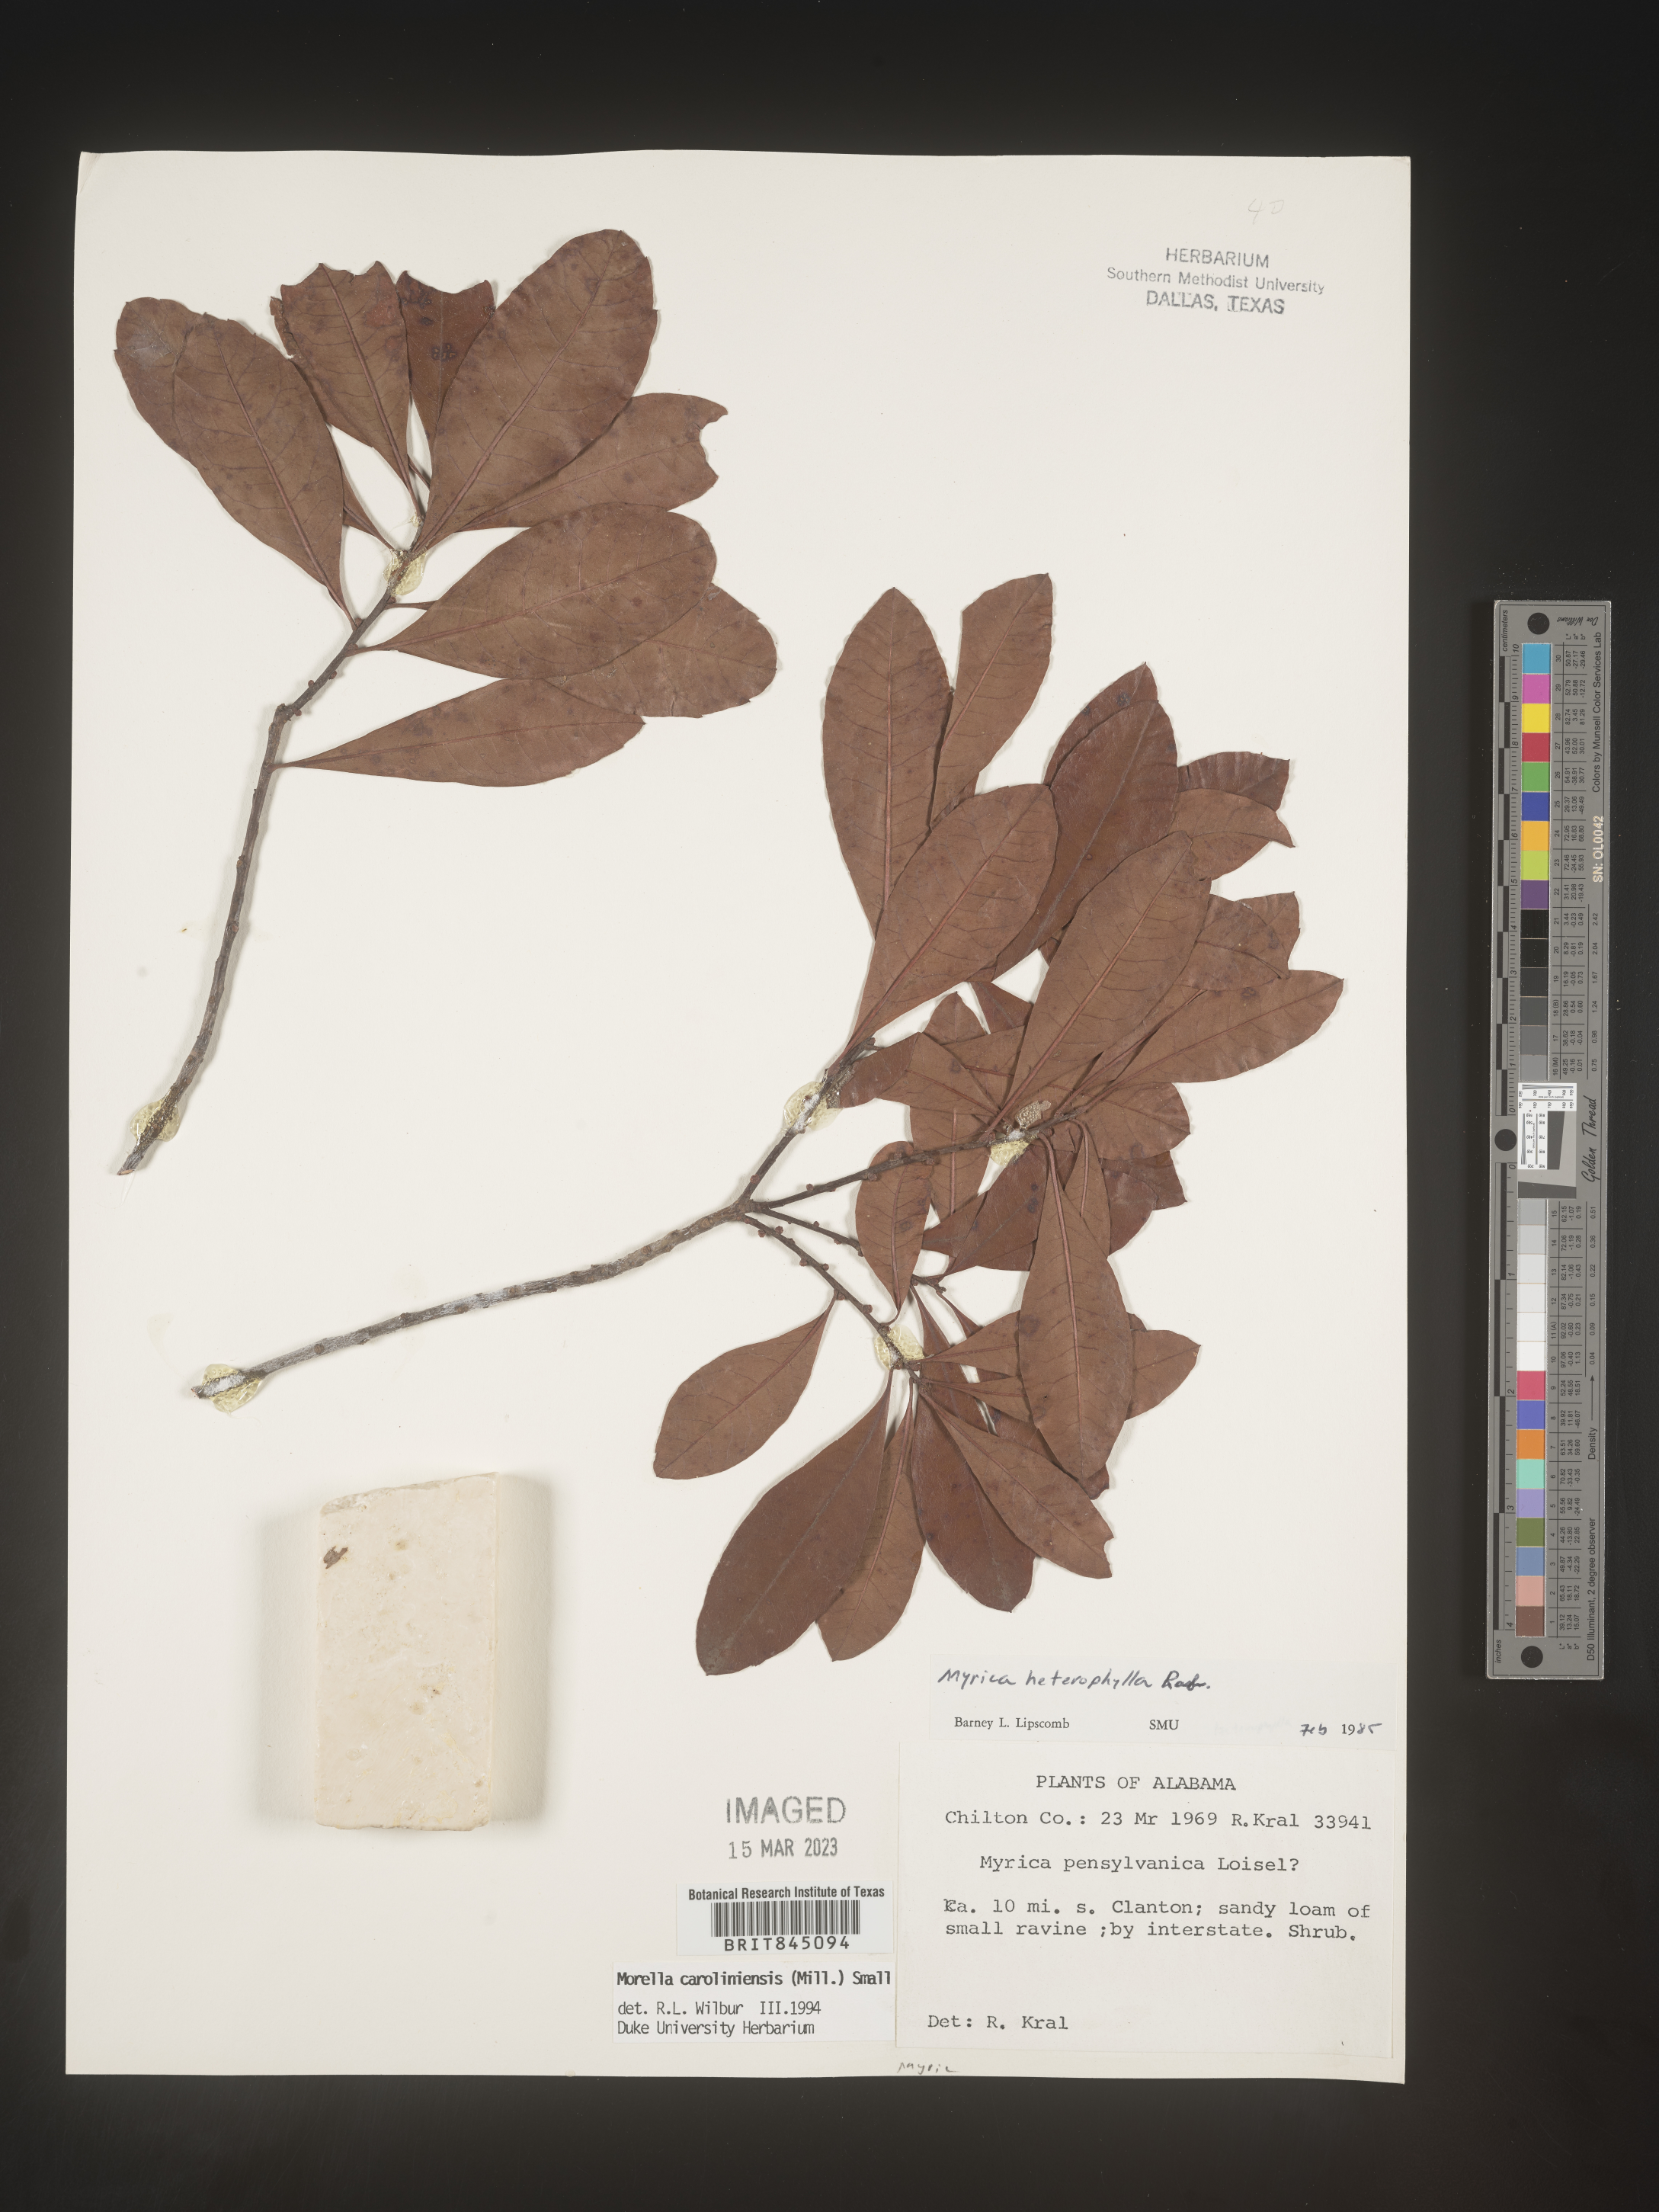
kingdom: Plantae
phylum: Tracheophyta
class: Magnoliopsida
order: Fagales
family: Myricaceae
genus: Morella
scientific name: Morella caroliniensis
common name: Evergreen bayberry
